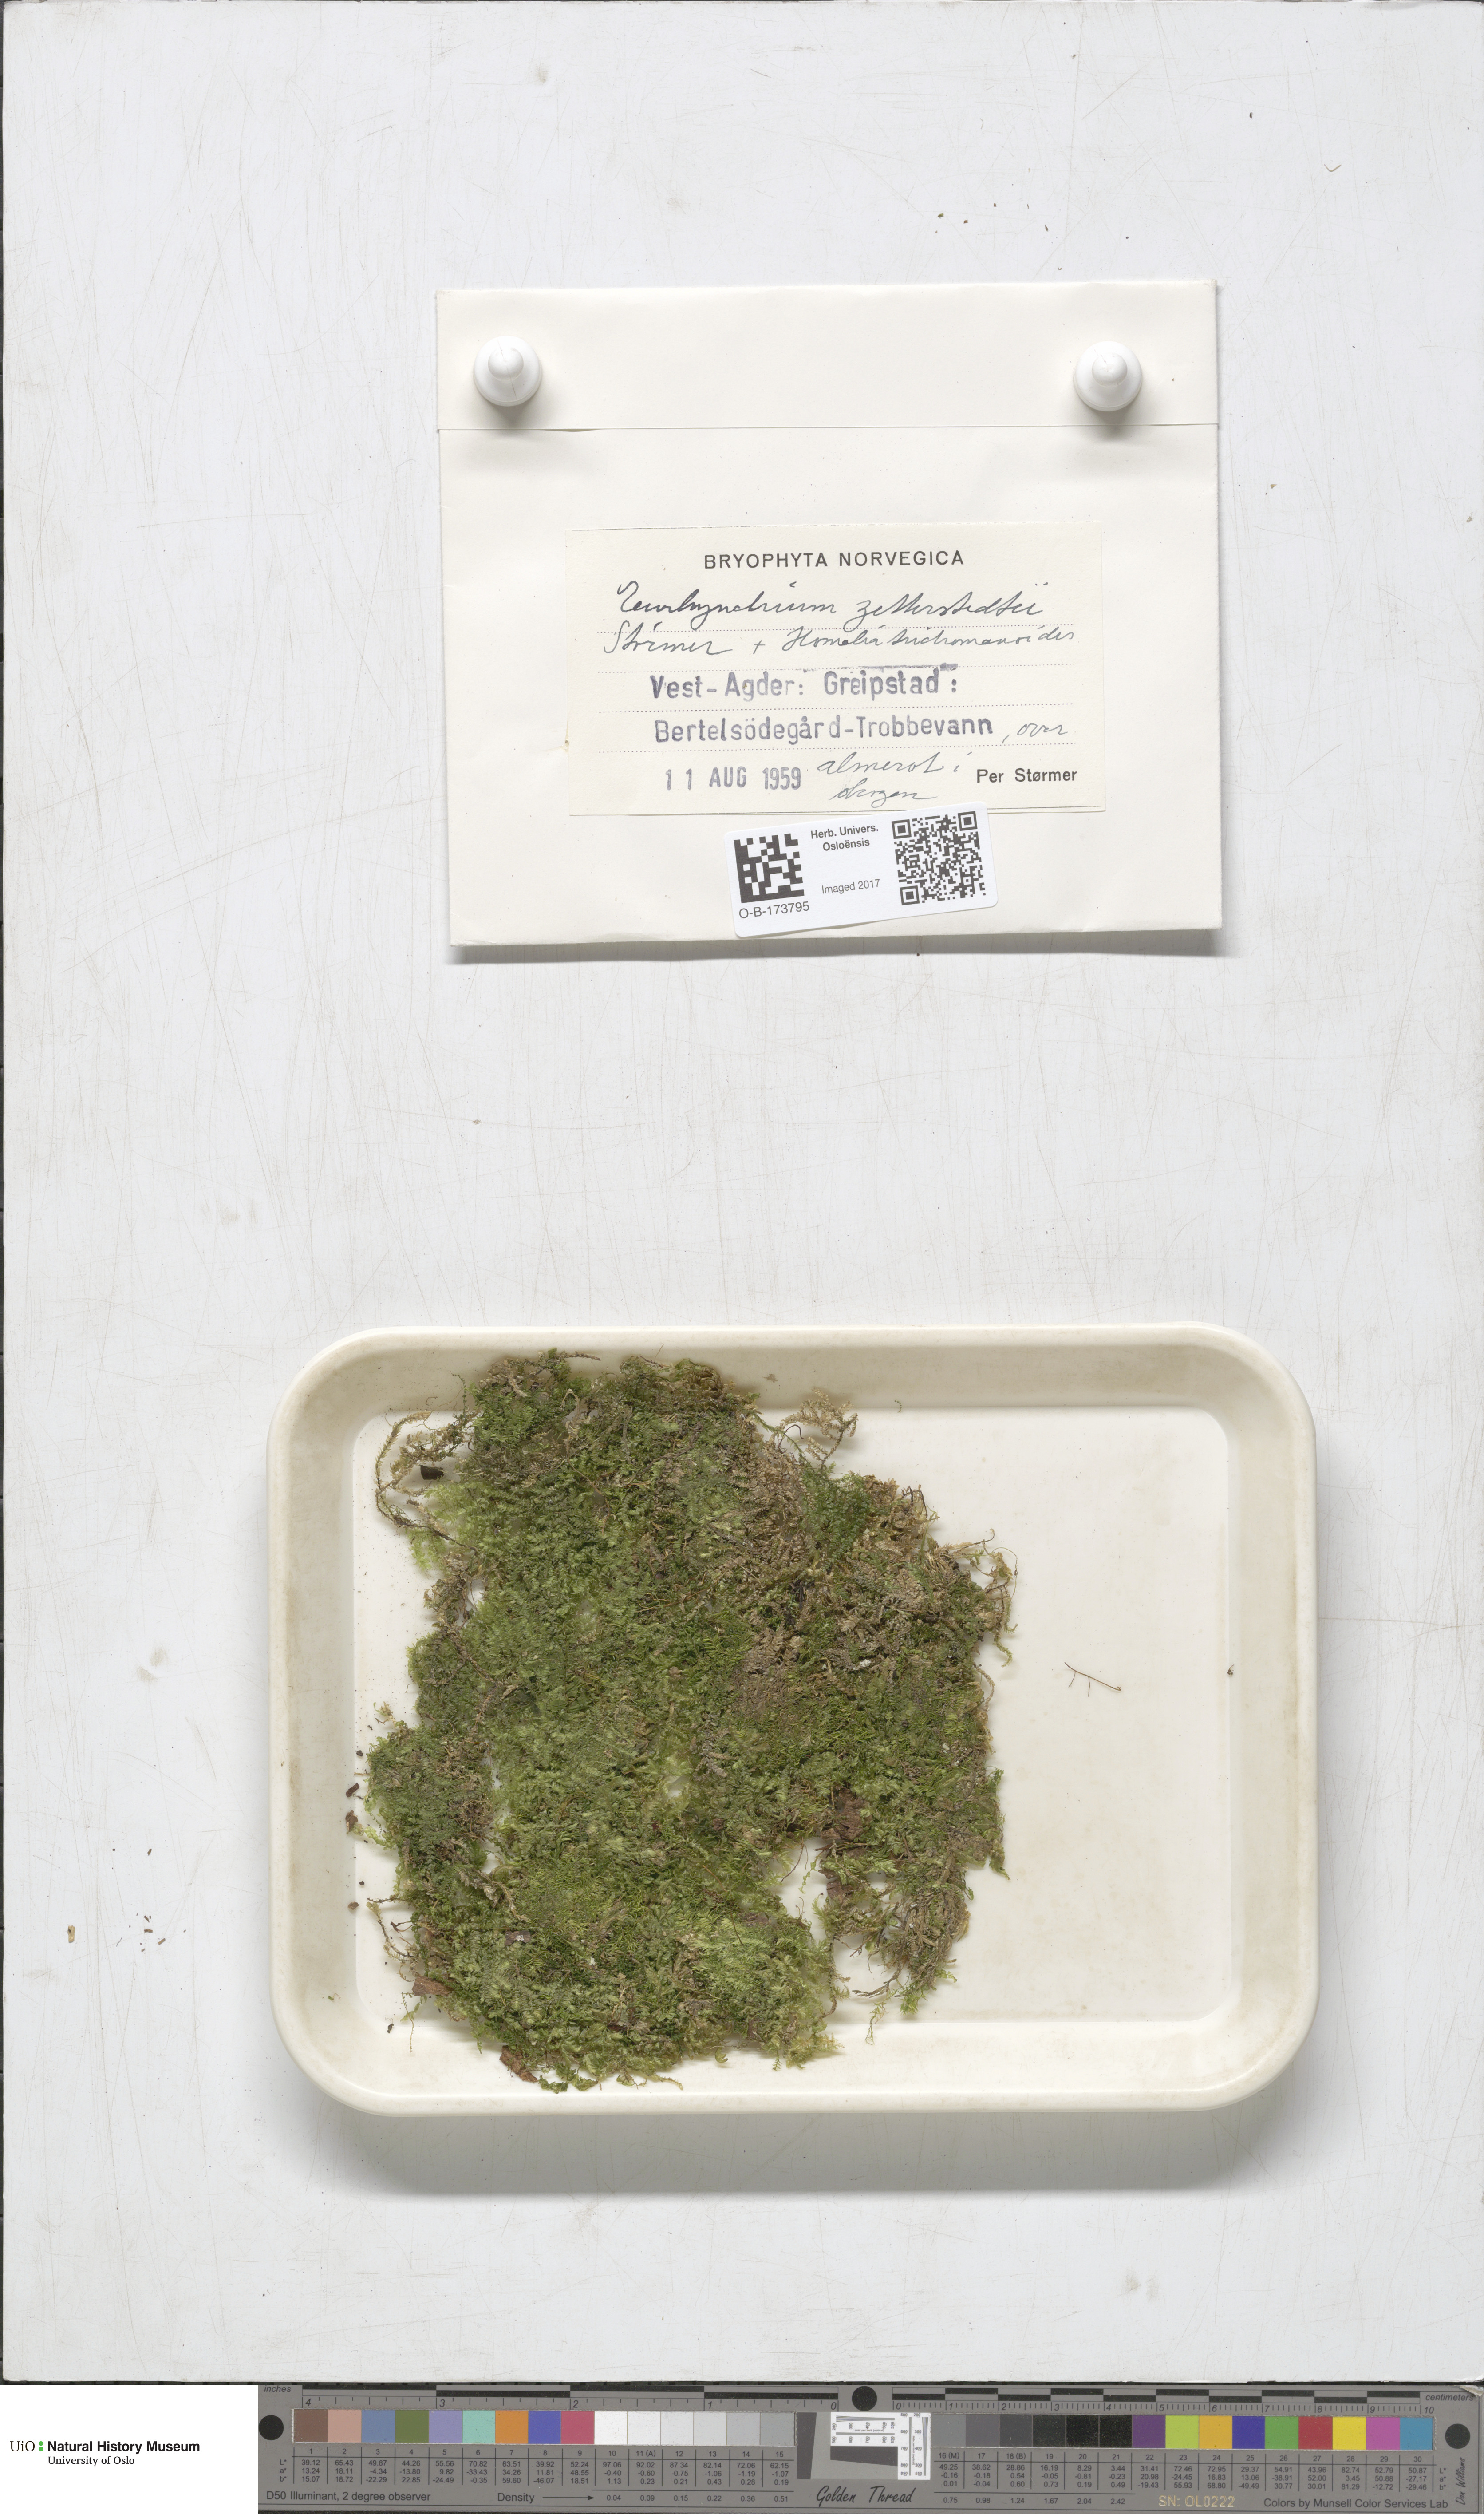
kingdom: Plantae
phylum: Bryophyta
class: Bryopsida
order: Hypnales
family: Brachytheciaceae
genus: Eurhynchium
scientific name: Eurhynchium angustirete
